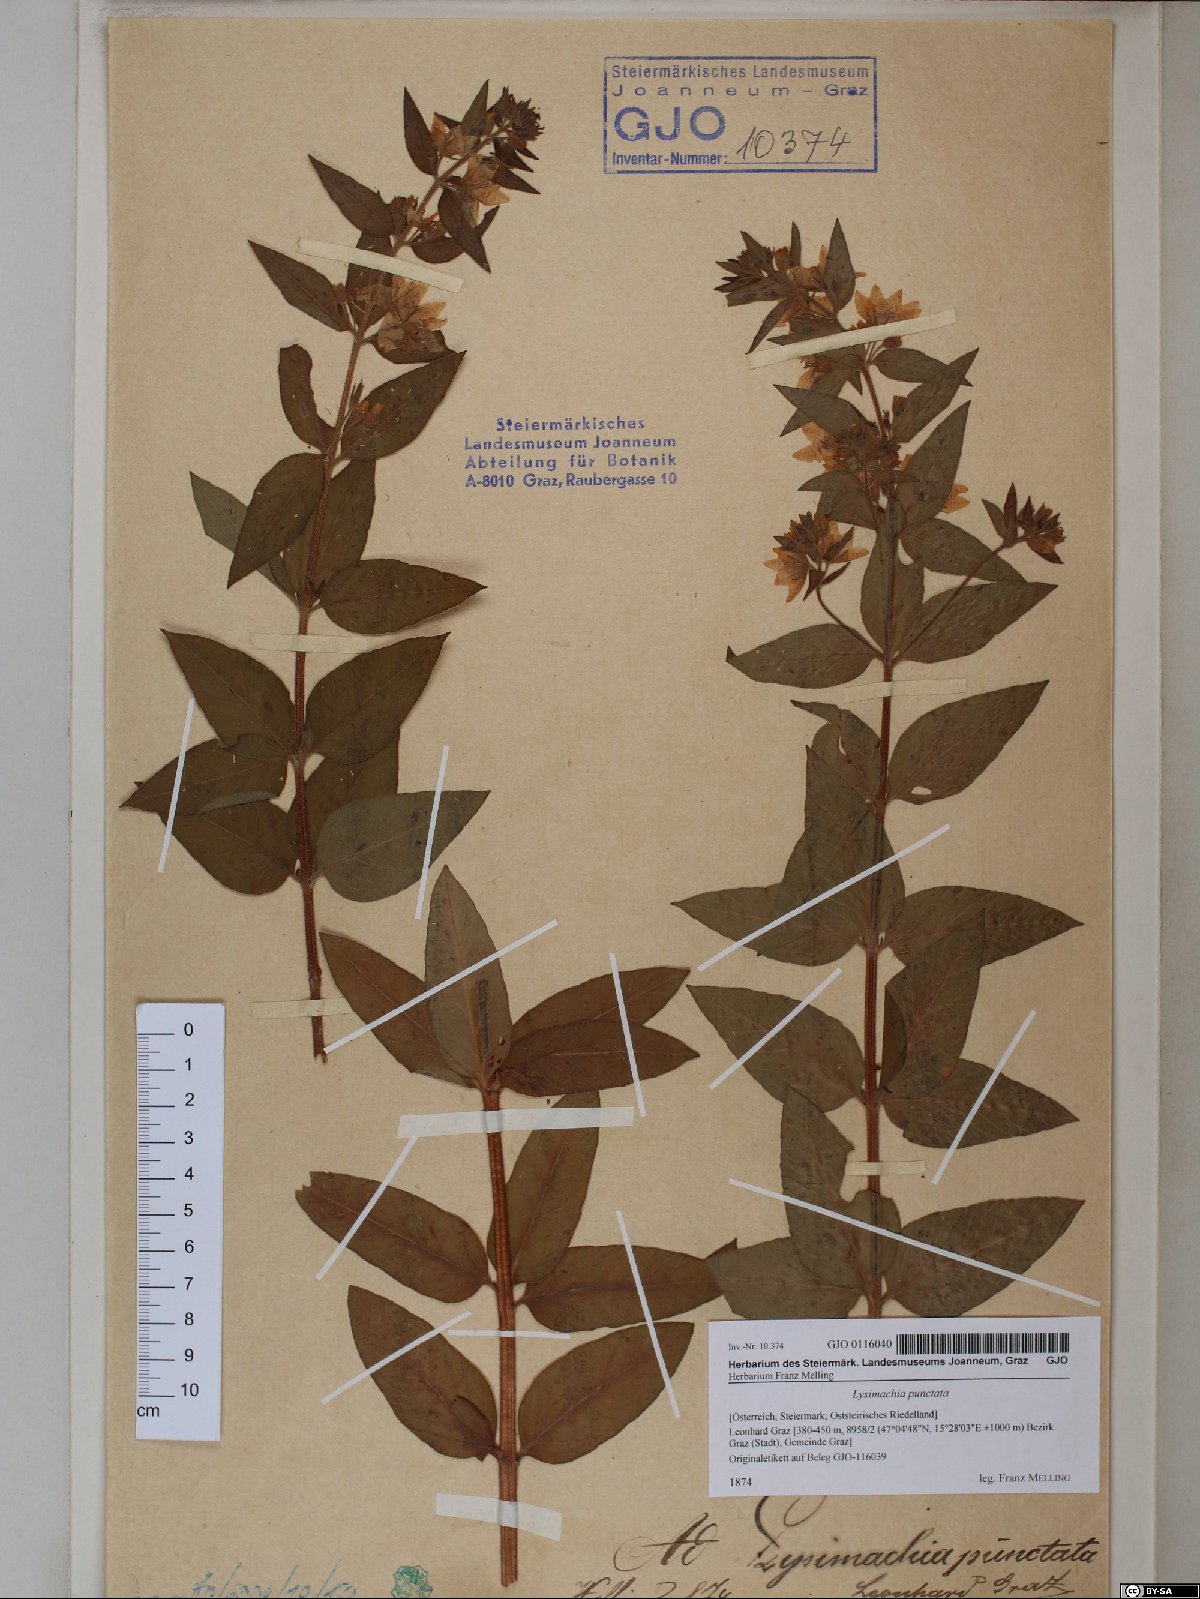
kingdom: Plantae
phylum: Tracheophyta
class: Magnoliopsida
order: Ericales
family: Primulaceae
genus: Lysimachia
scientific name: Lysimachia punctata
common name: Dotted loosestrife
